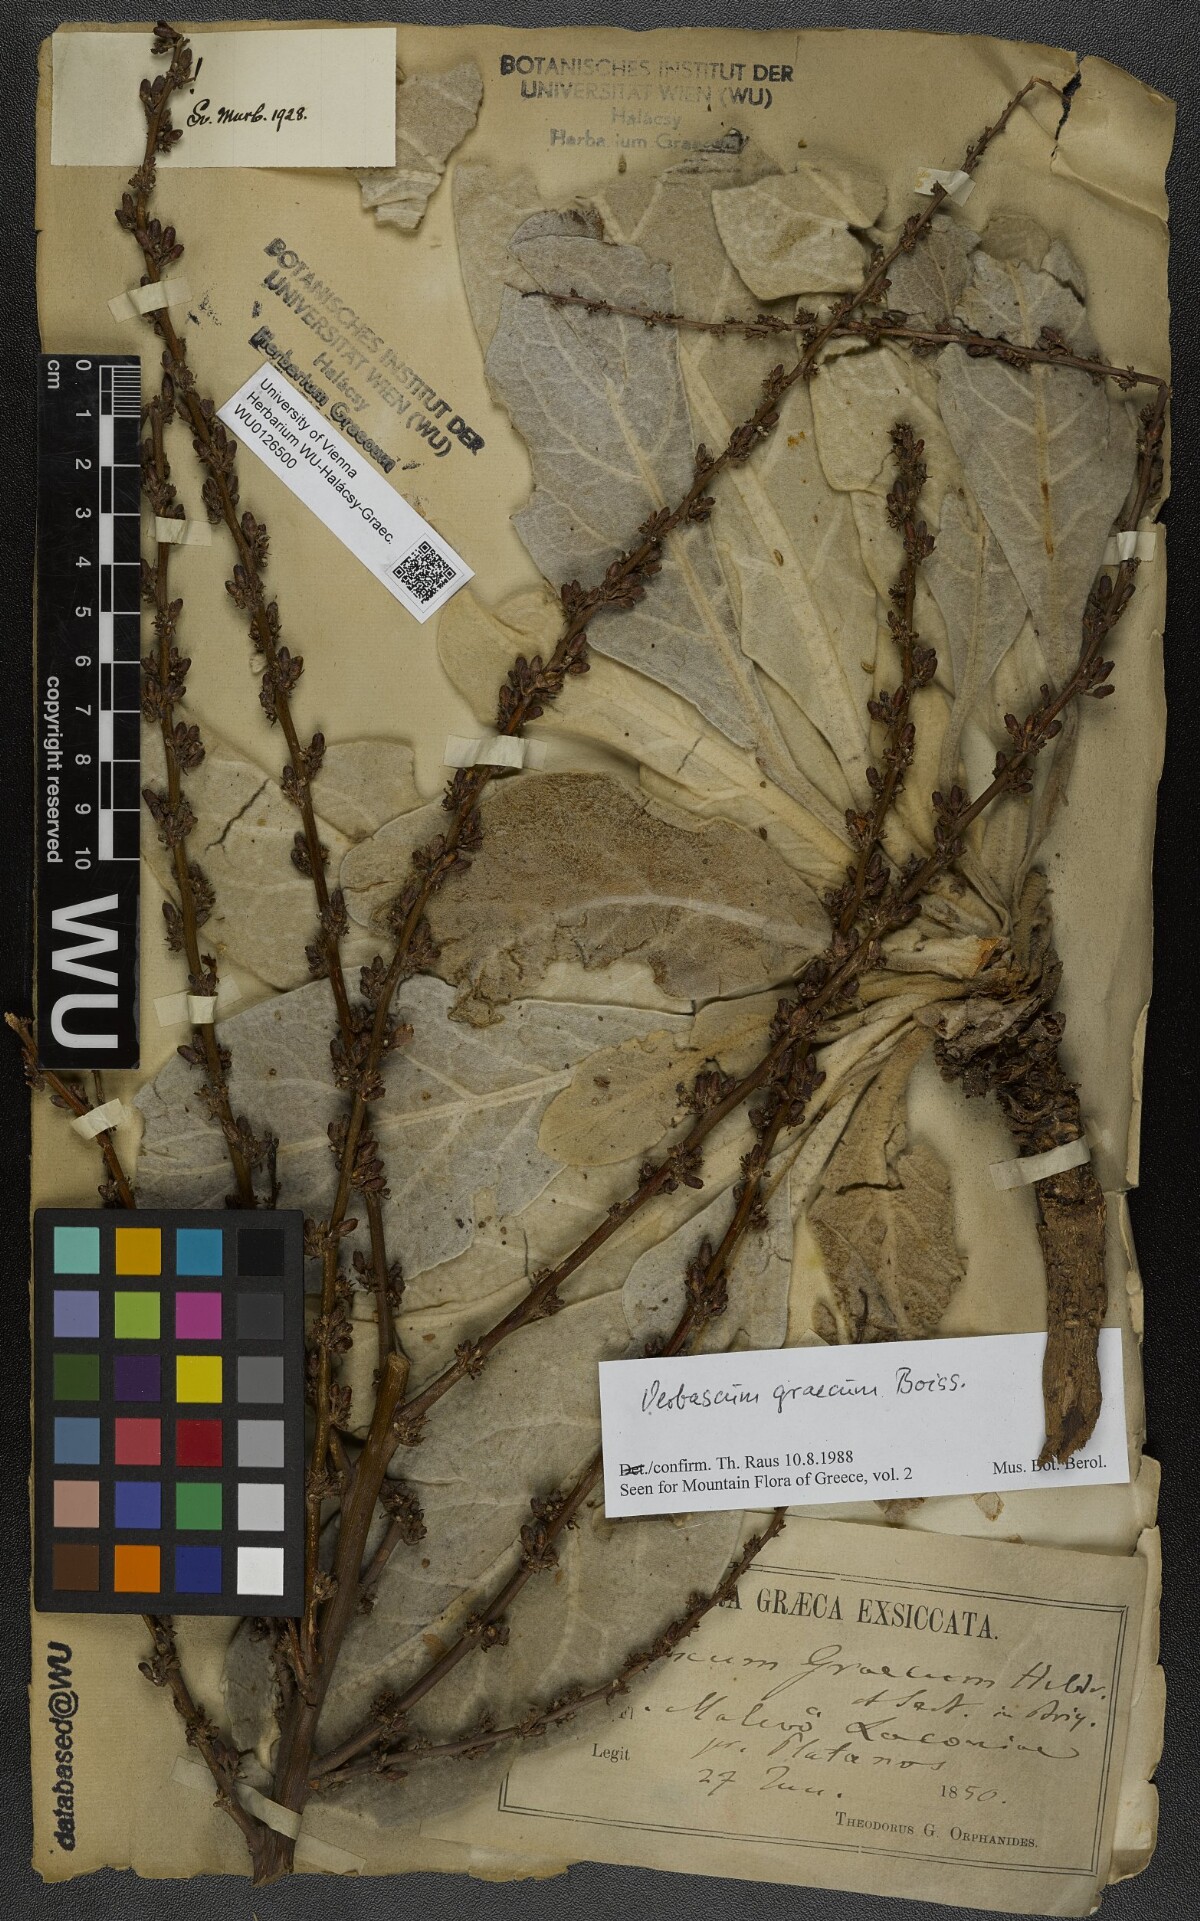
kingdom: Plantae
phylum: Tracheophyta
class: Magnoliopsida
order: Lamiales
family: Scrophulariaceae
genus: Verbascum
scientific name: Verbascum graecum
